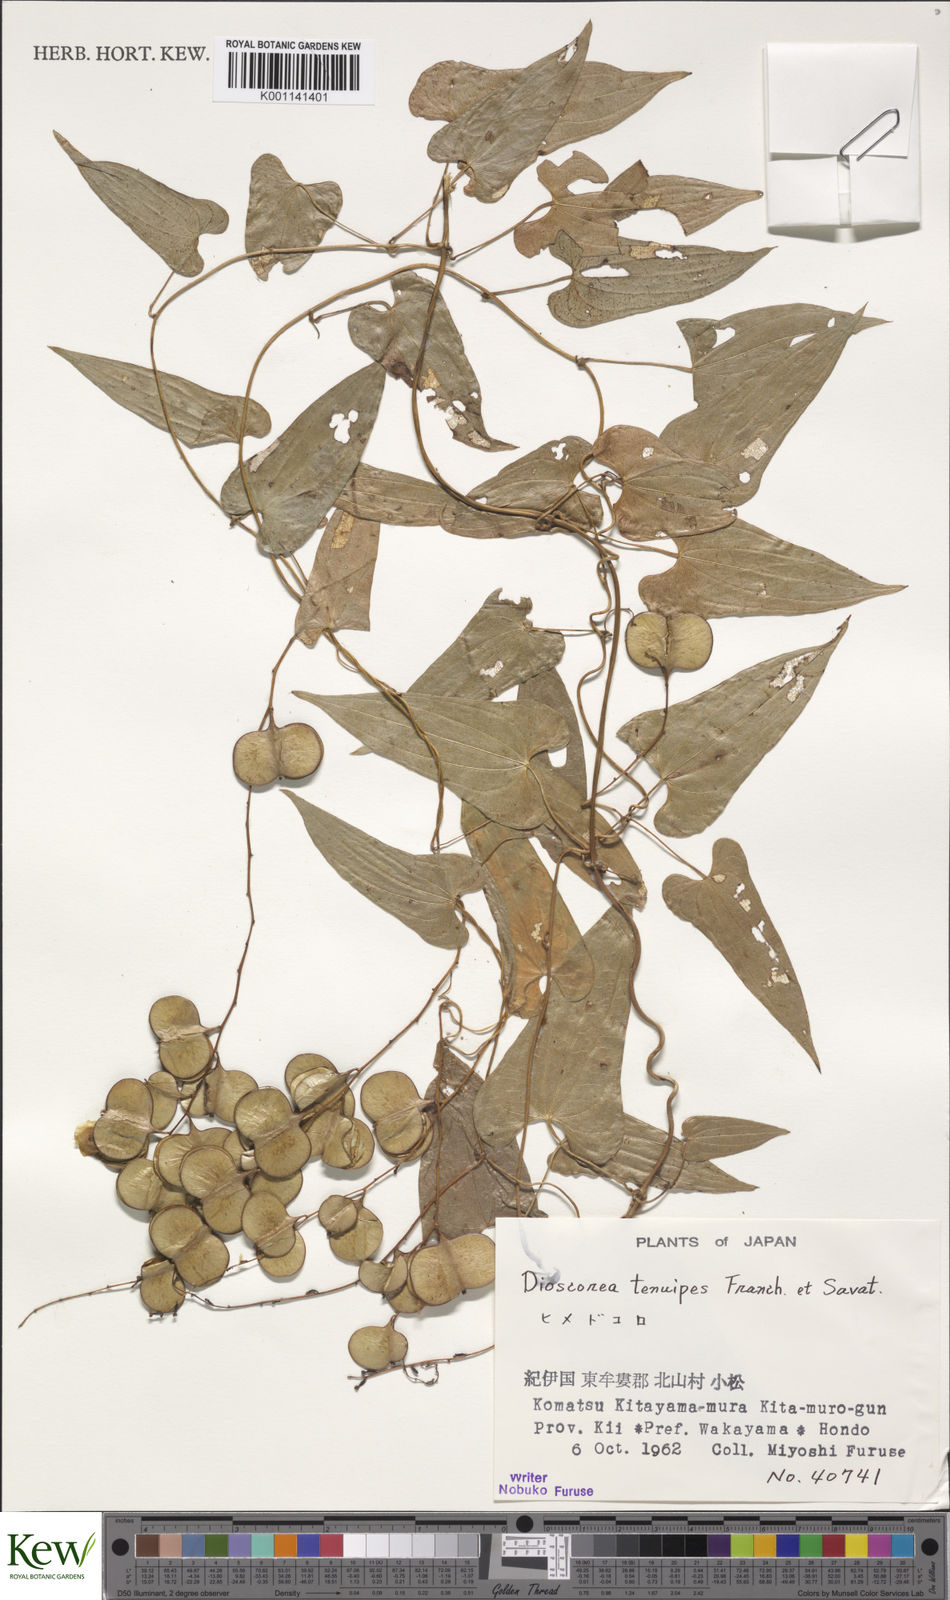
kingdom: Plantae
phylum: Tracheophyta
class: Liliopsida
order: Dioscoreales
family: Dioscoreaceae
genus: Dioscorea
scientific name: Dioscorea tenuipes
